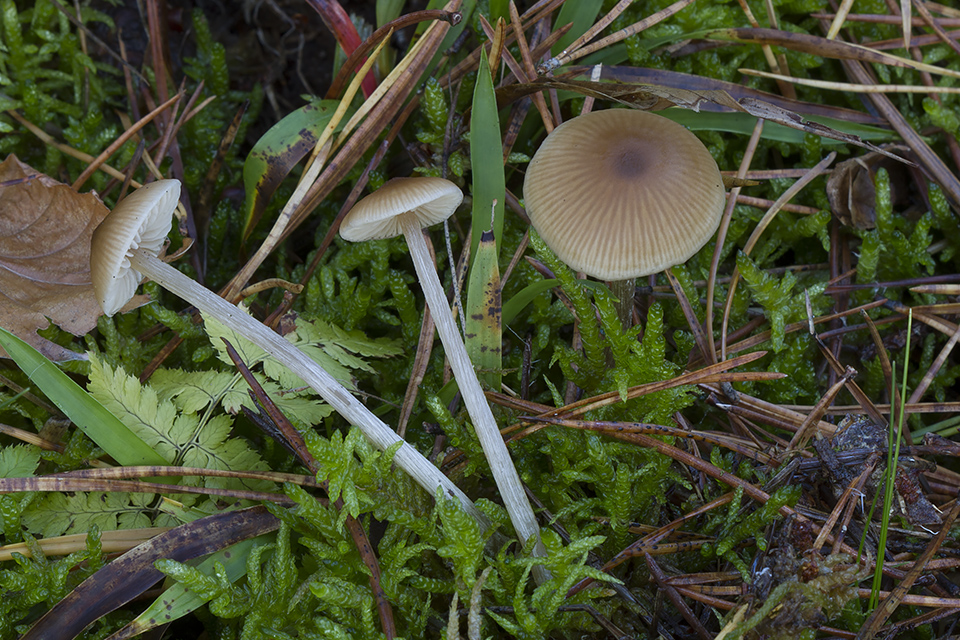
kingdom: Fungi
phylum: Basidiomycota
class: Agaricomycetes
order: Agaricales
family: Entolomataceae
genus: Entoloma
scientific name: Entoloma cetratum
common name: voks-rødblad
